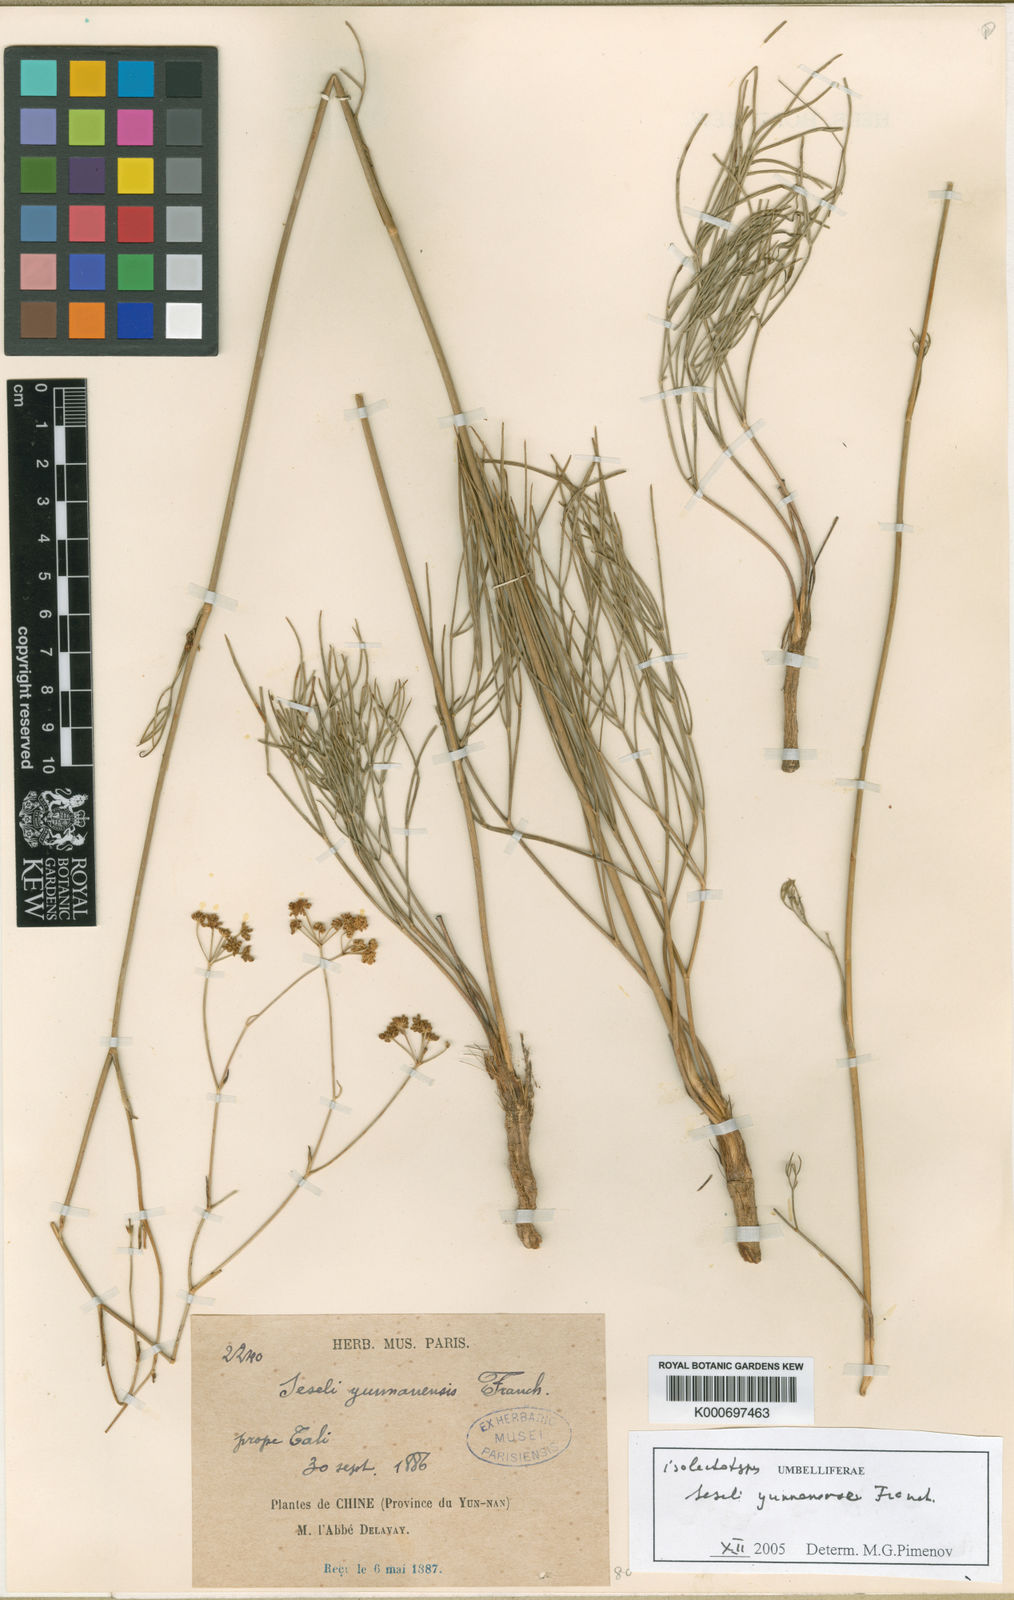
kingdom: Plantae
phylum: Tracheophyta
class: Magnoliopsida
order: Apiales
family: Apiaceae
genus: Seseli
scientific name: Seseli yunnanense
